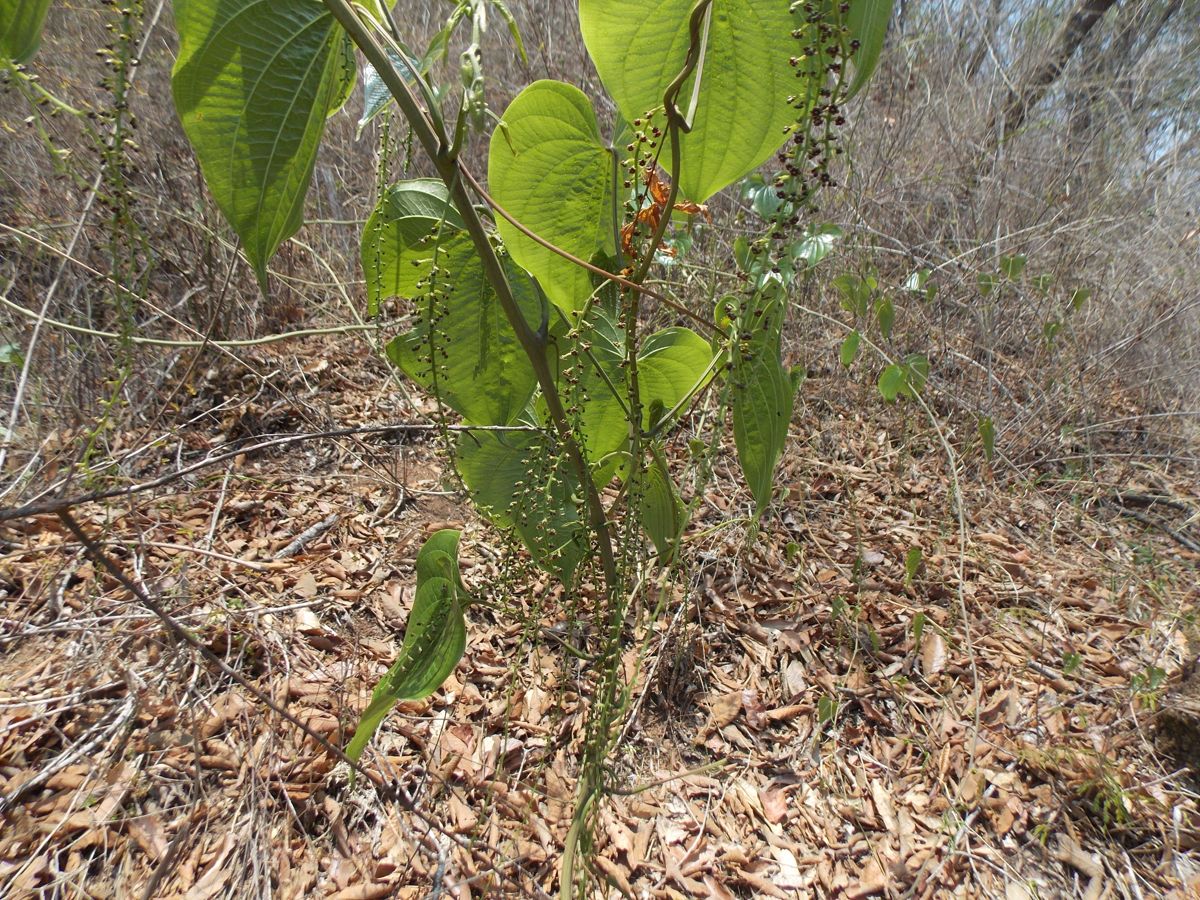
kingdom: Plantae
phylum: Tracheophyta
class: Liliopsida
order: Dioscoreales
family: Dioscoreaceae
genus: Dioscorea
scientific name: Dioscorea mexicana
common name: Mexican yam
